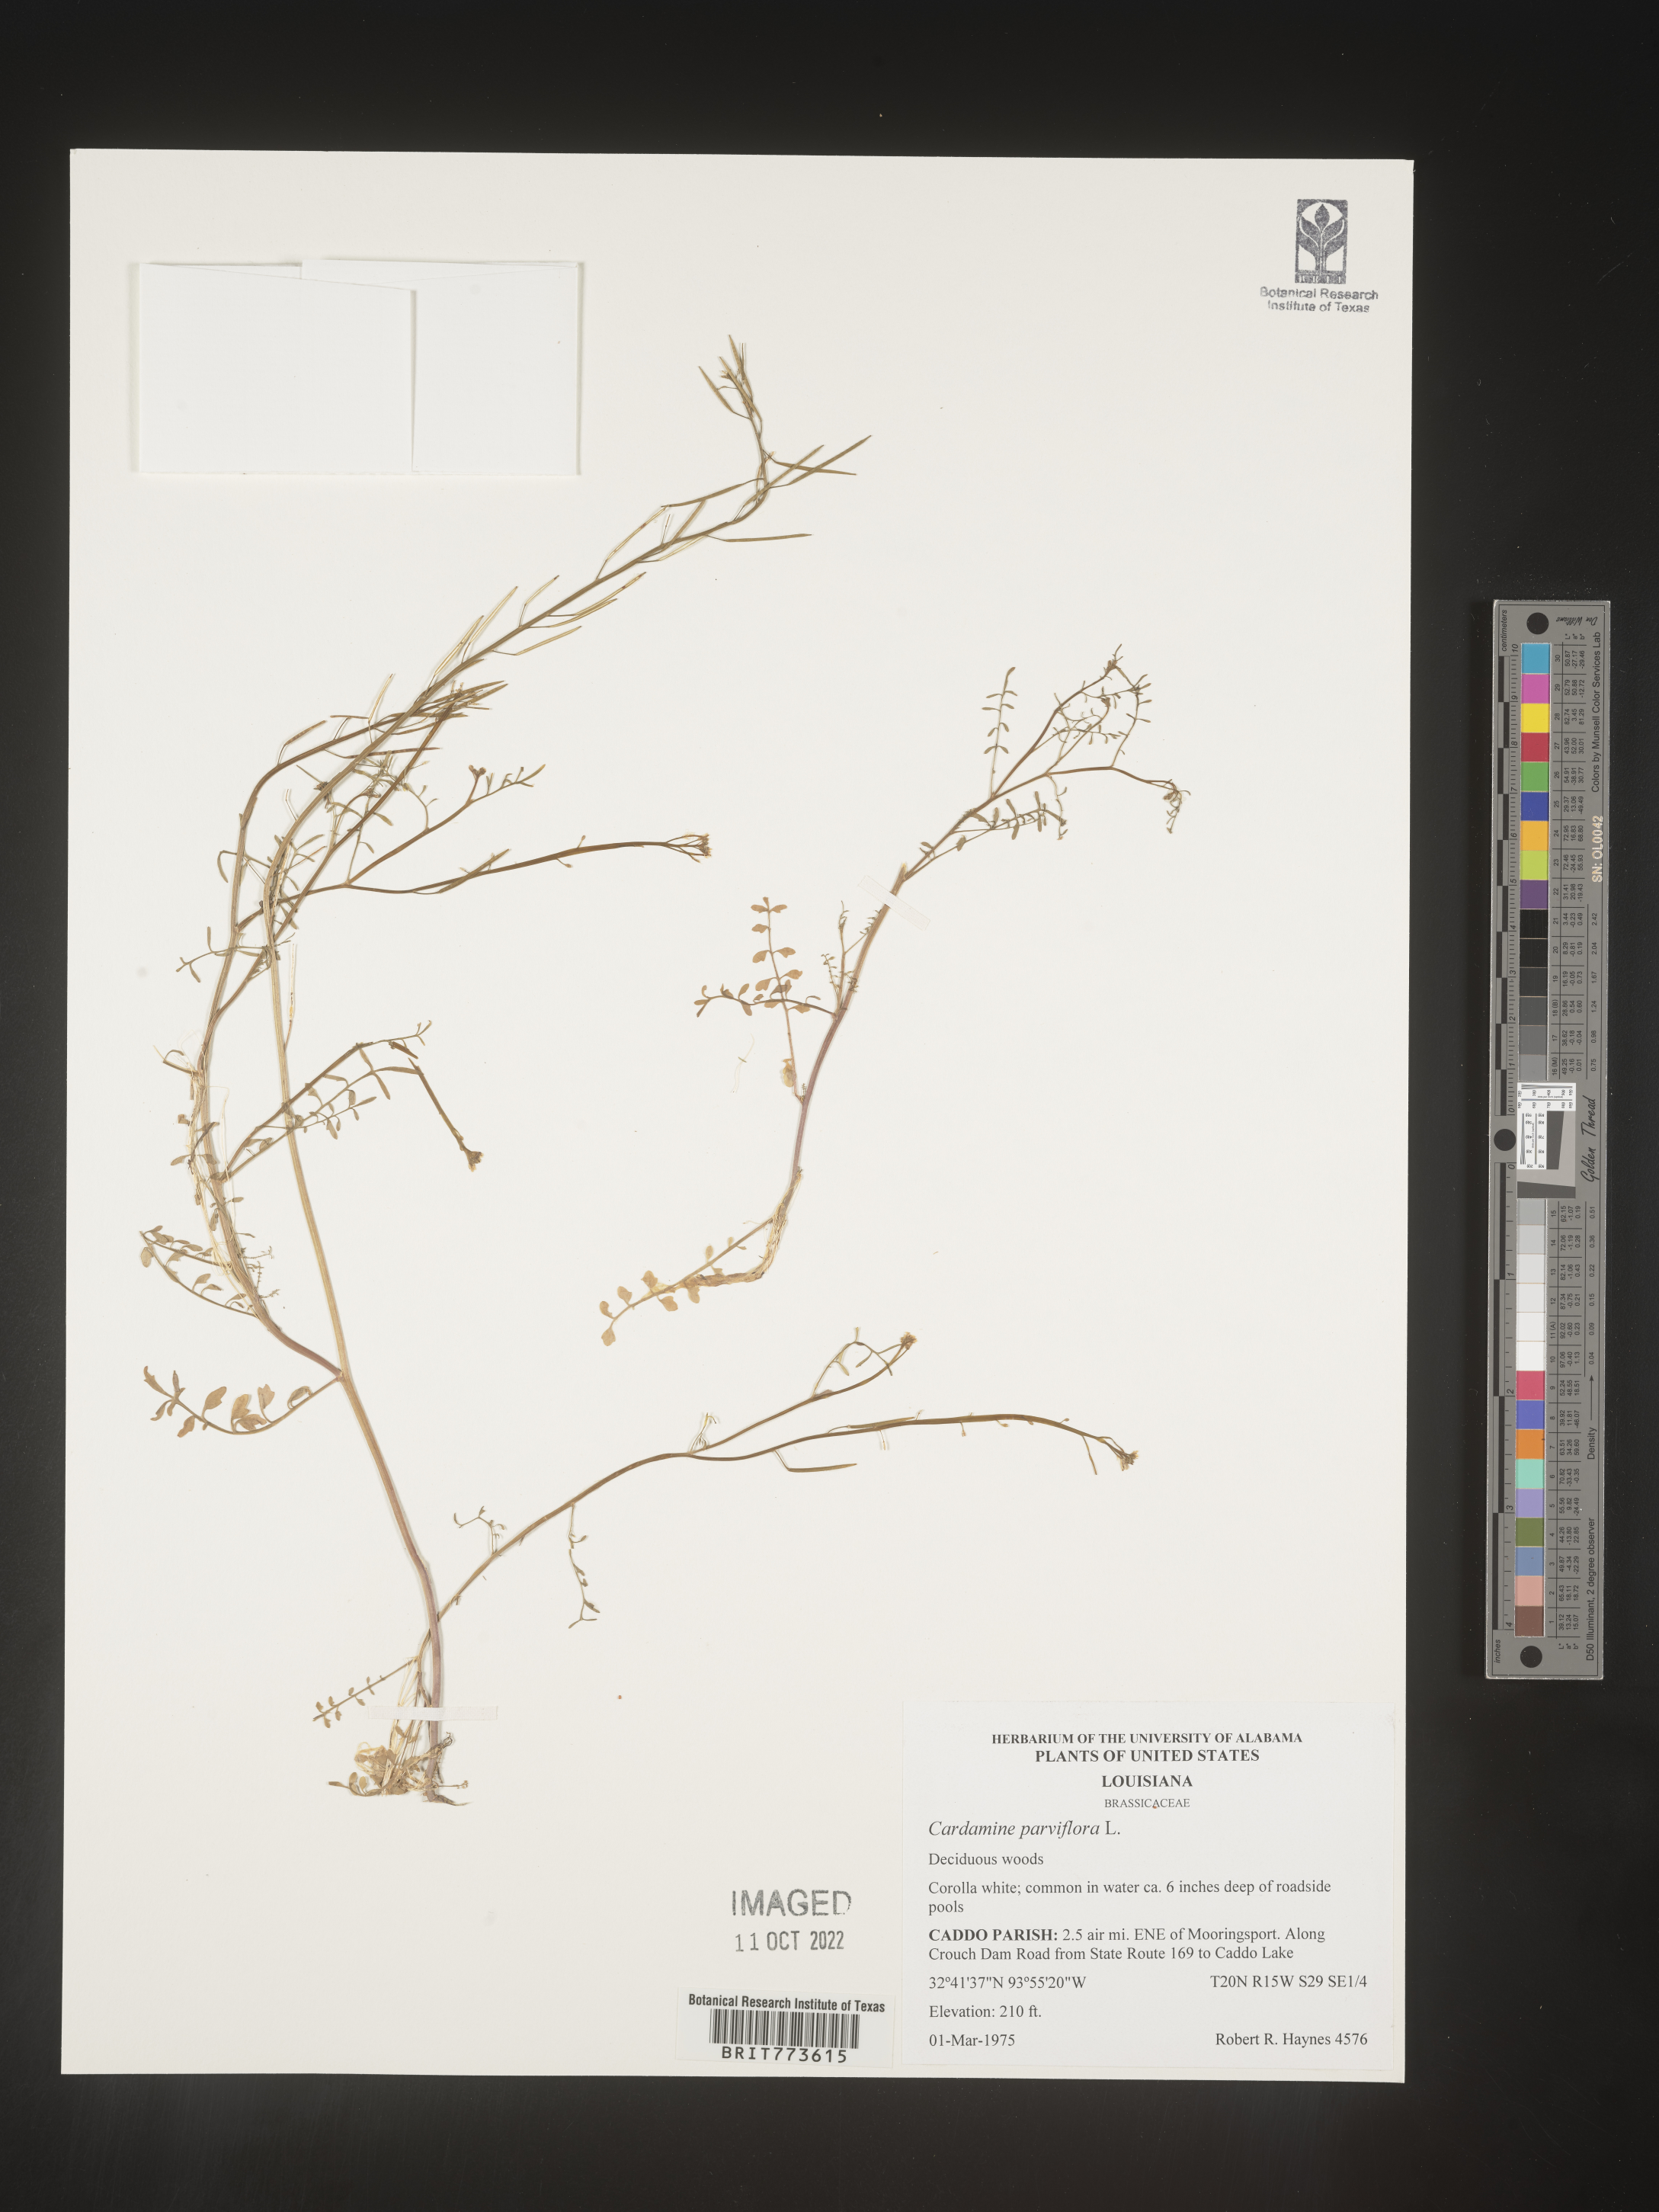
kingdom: Plantae
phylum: Tracheophyta
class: Magnoliopsida
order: Brassicales
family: Brassicaceae
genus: Cardamine
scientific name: Cardamine parviflora
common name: Sand bittercress
